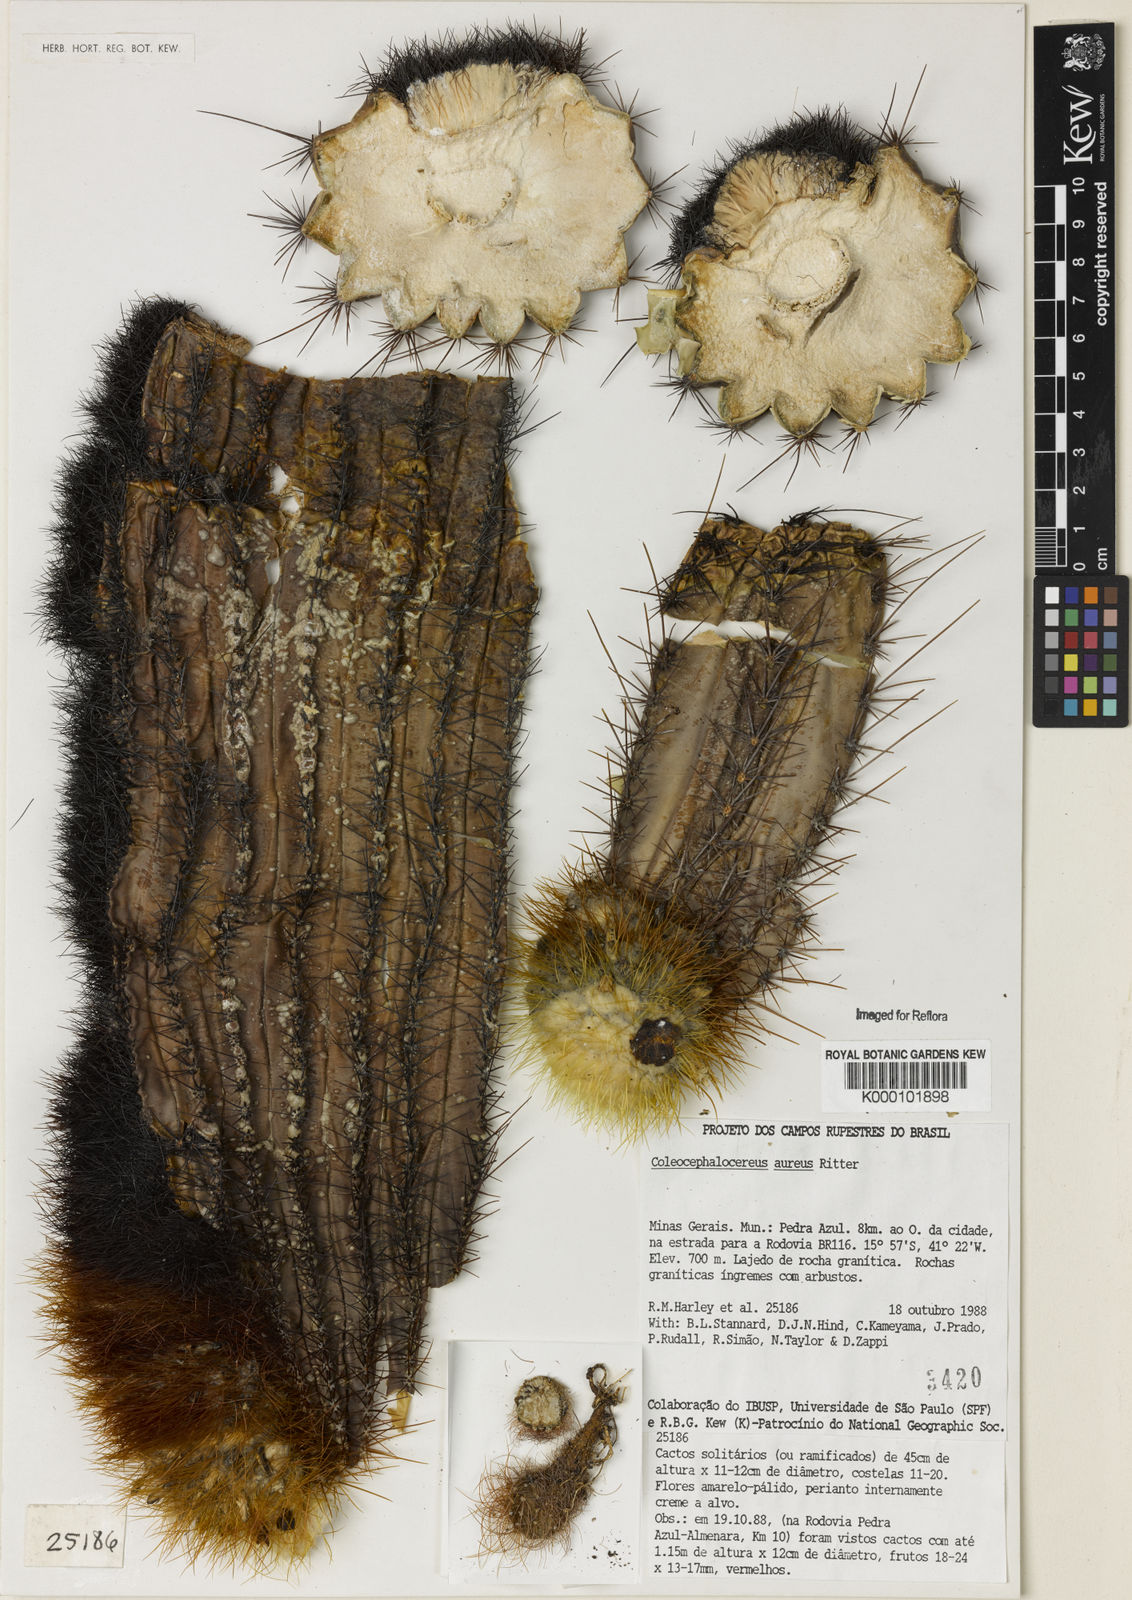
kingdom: Plantae
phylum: Tracheophyta
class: Magnoliopsida
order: Caryophyllales
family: Cactaceae
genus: Coleocephalocereus
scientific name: Coleocephalocereus aureus
